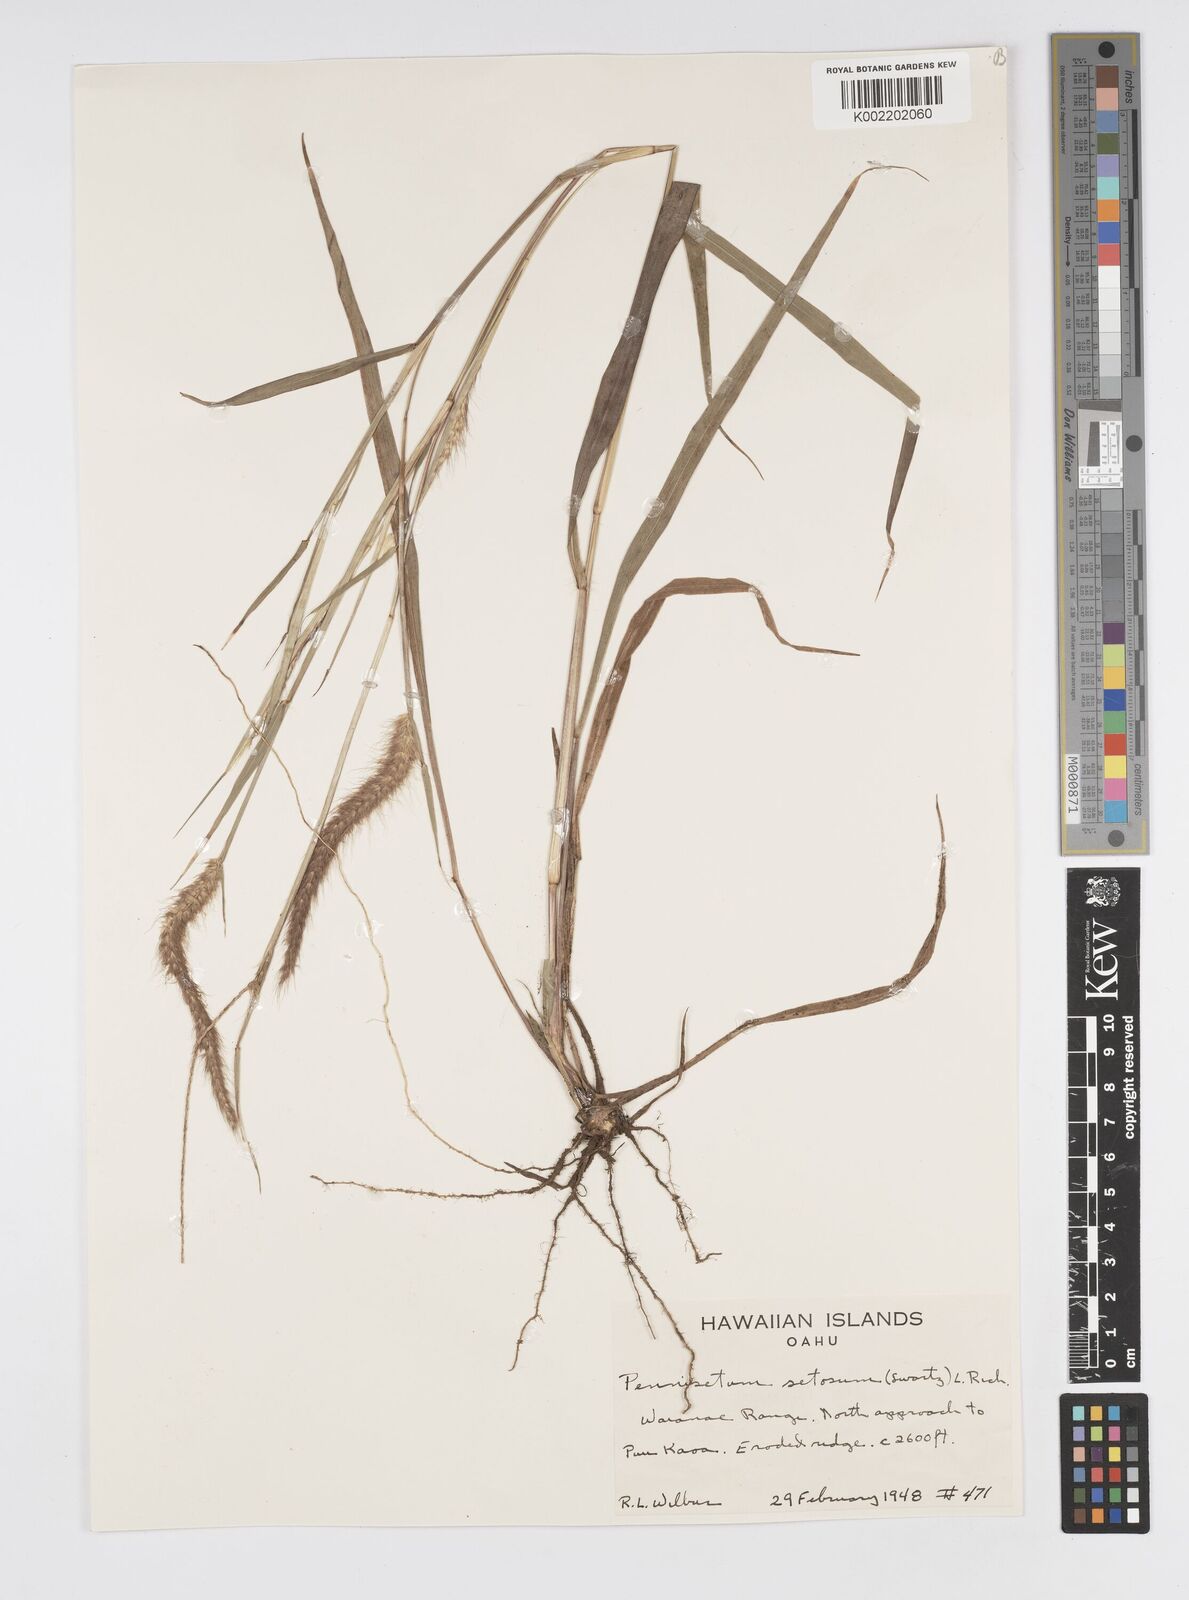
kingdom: Plantae
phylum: Tracheophyta
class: Liliopsida
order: Poales
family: Poaceae
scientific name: Poaceae
